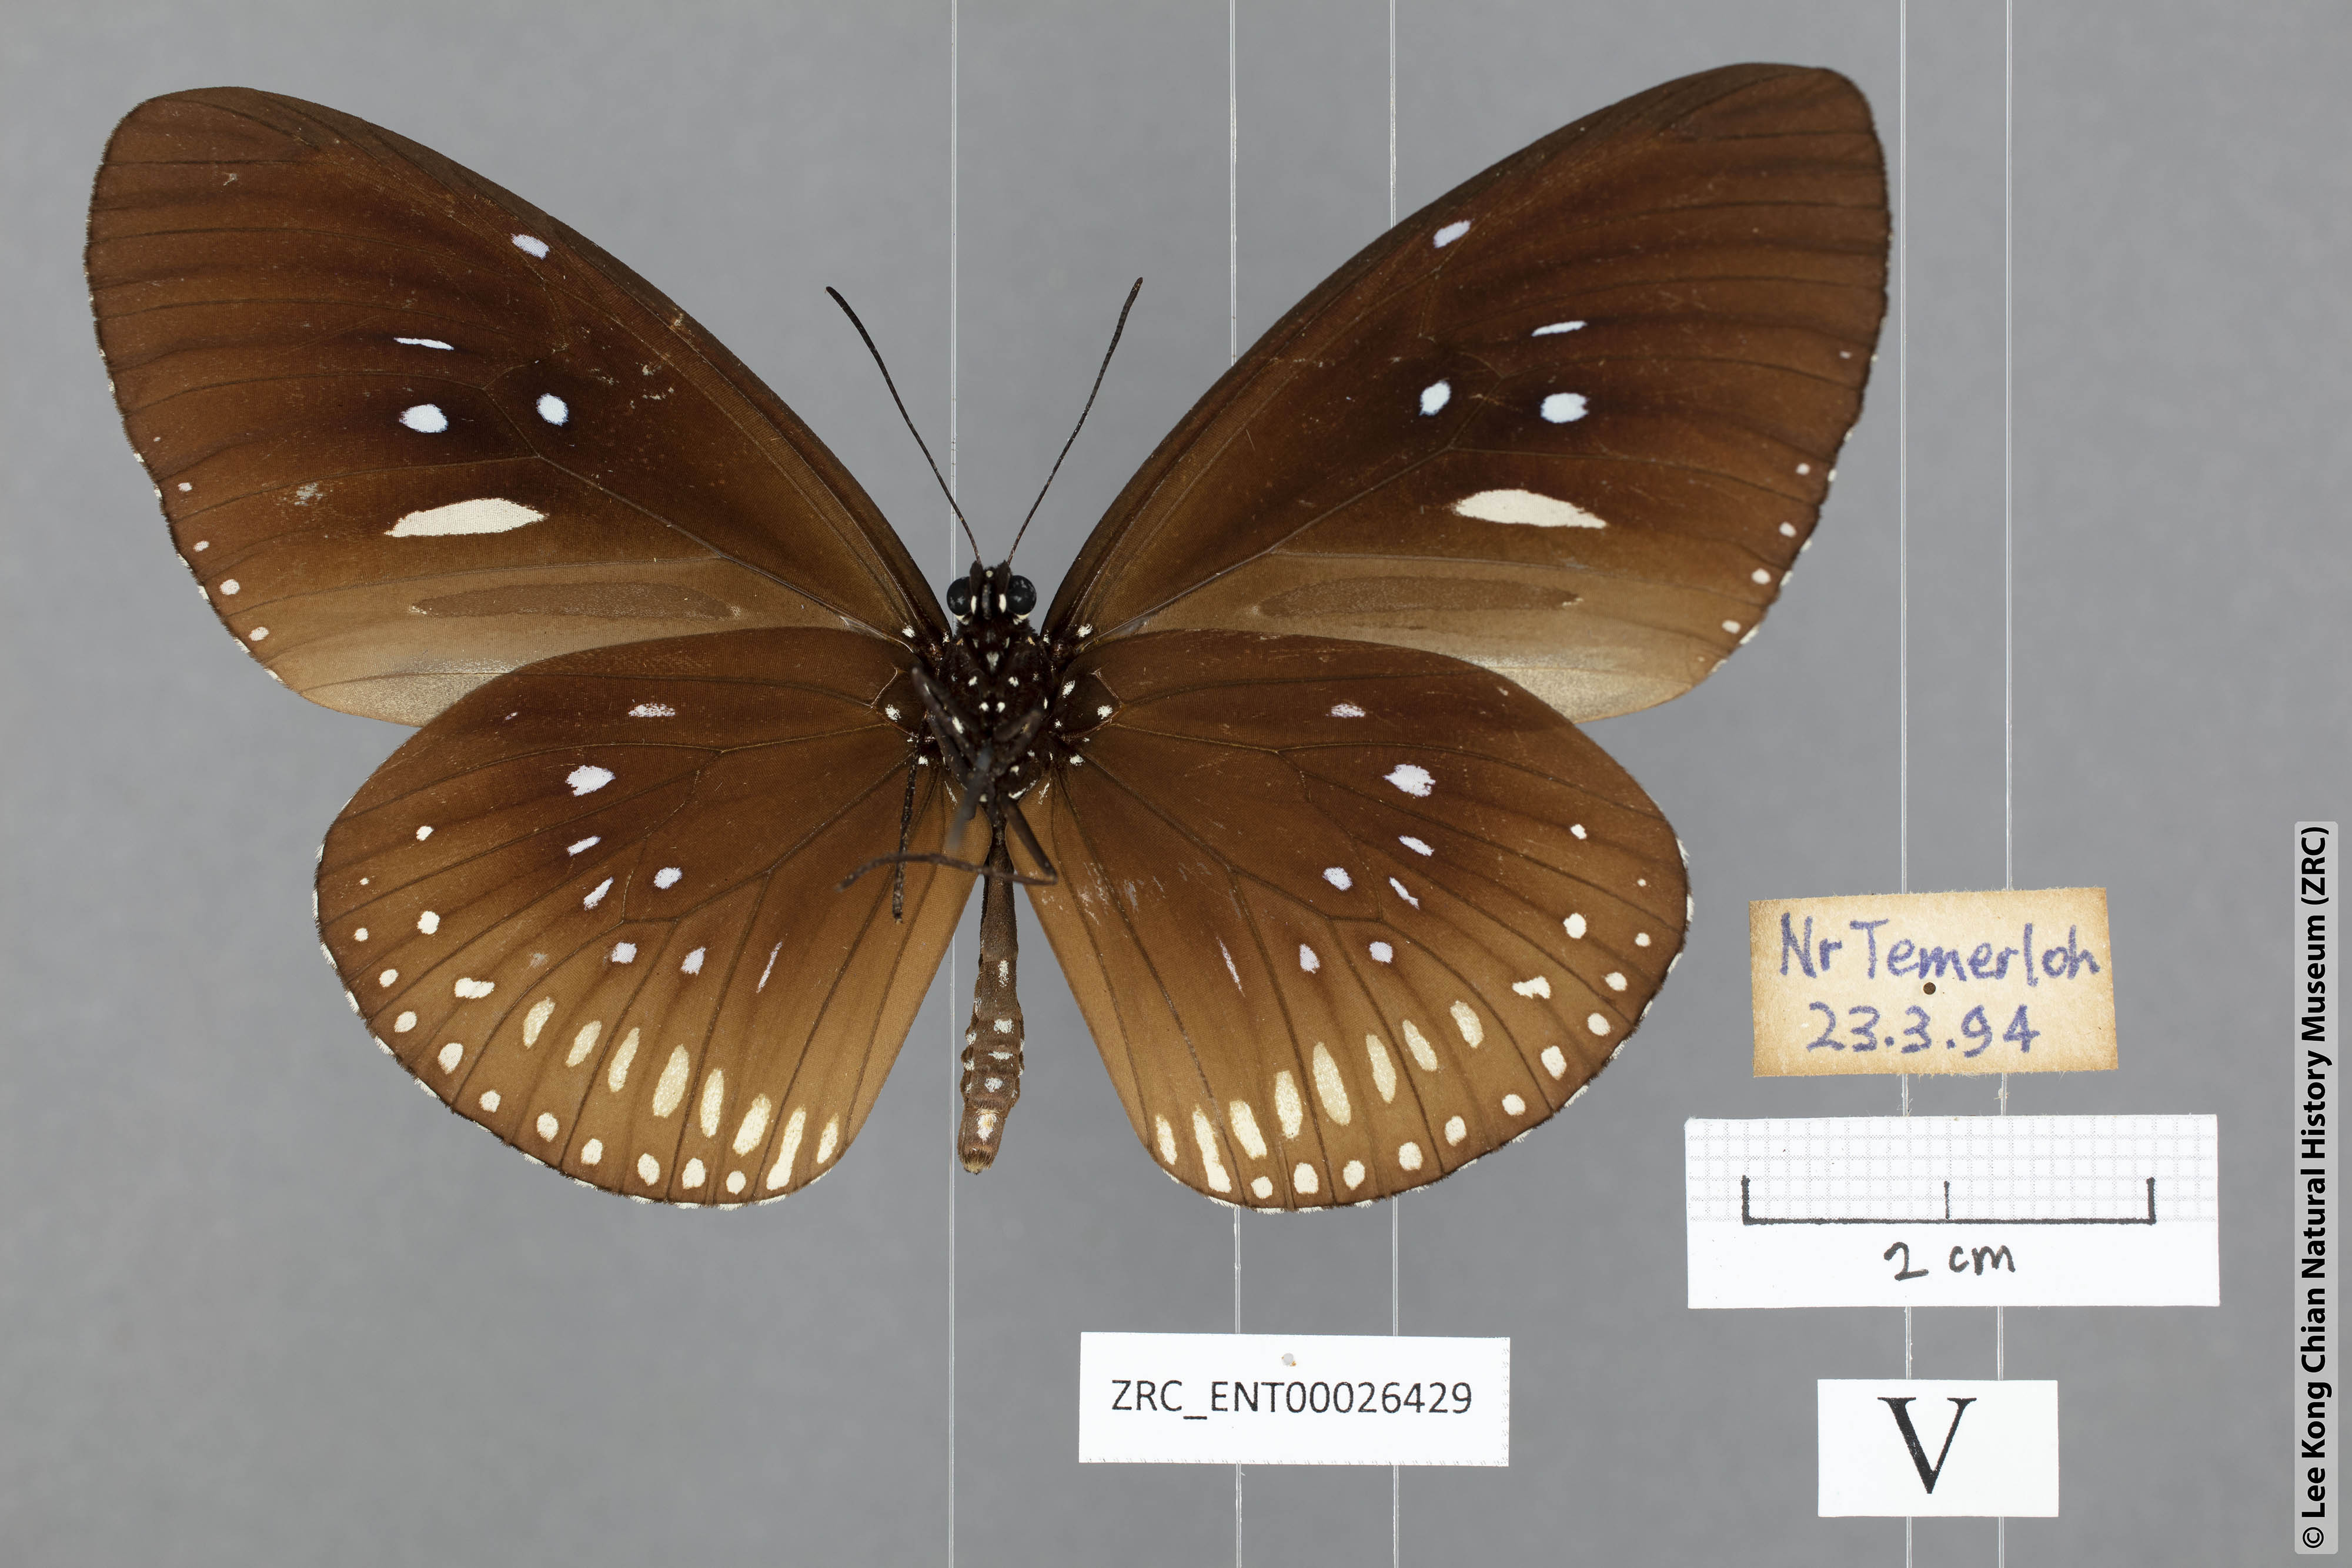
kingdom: Animalia
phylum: Arthropoda
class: Insecta
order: Lepidoptera
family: Nymphalidae
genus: Euploea
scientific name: Euploea doubledayi
